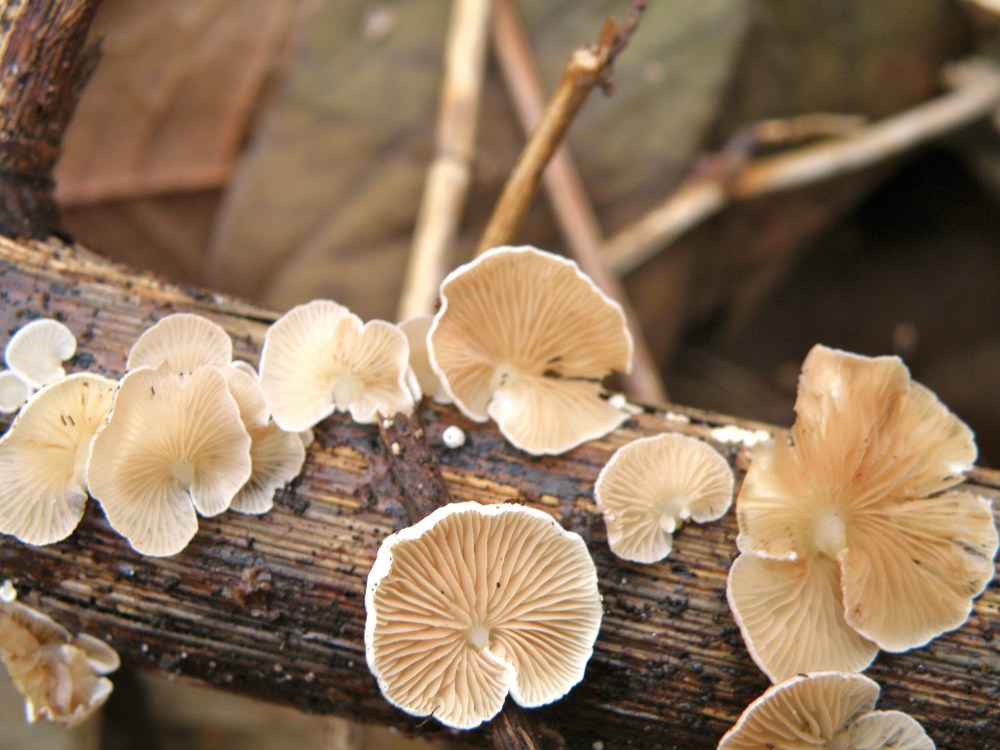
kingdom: Fungi
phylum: Basidiomycota
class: Agaricomycetes
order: Agaricales
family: Crepidotaceae
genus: Crepidotus
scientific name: Crepidotus luteolus
